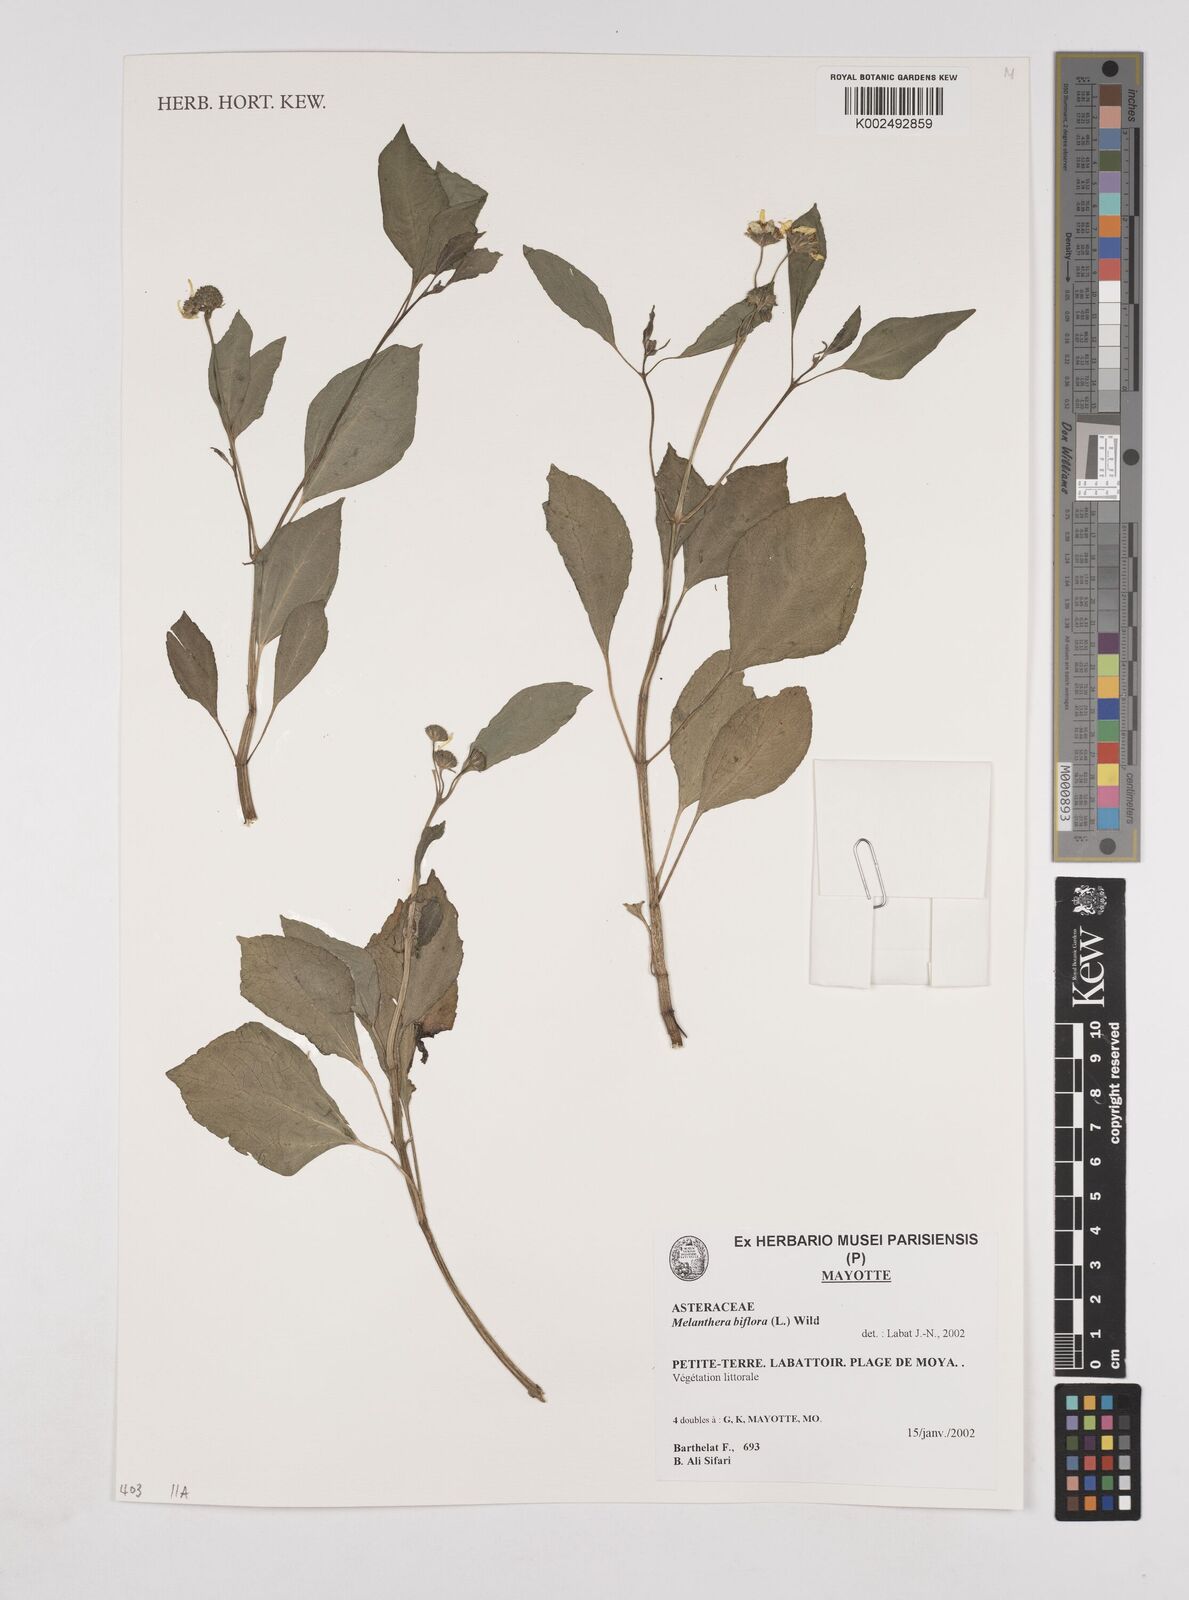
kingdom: Plantae
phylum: Tracheophyta
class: Magnoliopsida
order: Asterales
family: Asteraceae
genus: Wollastonia
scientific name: Wollastonia biflora
